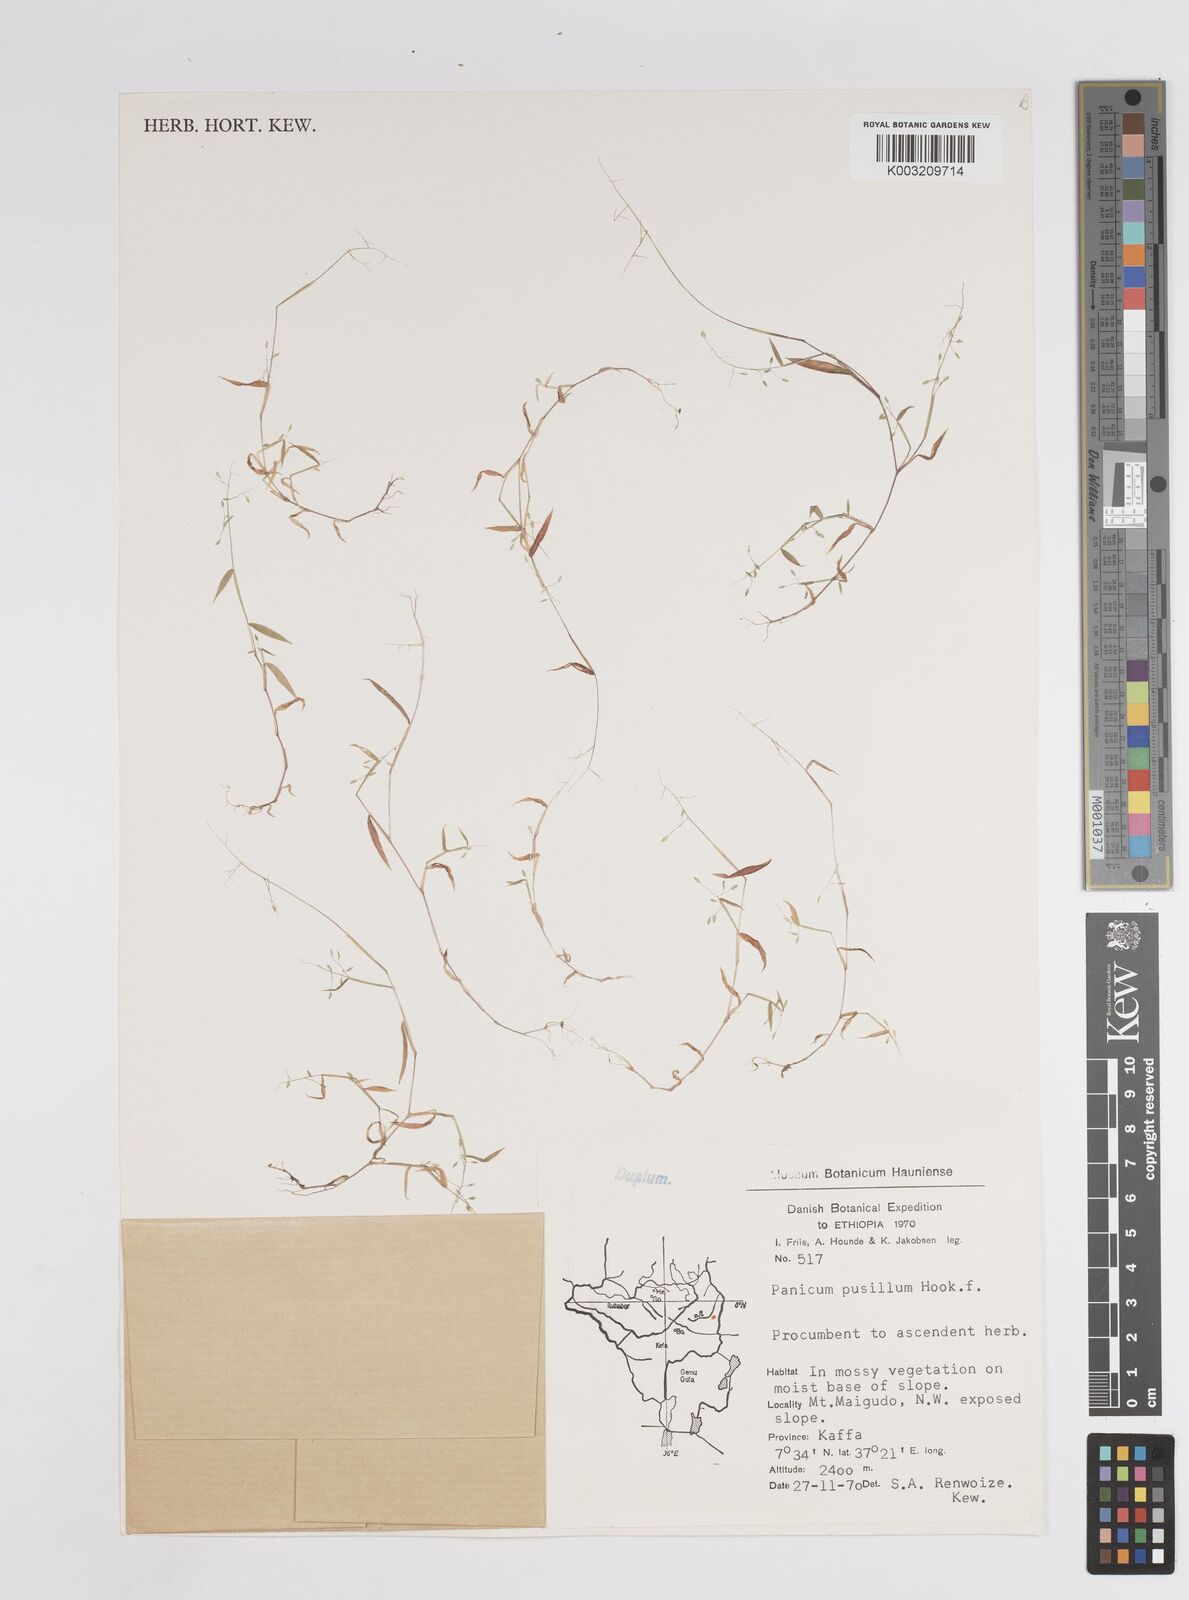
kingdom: Plantae
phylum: Tracheophyta
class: Liliopsida
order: Poales
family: Poaceae
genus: Panicum
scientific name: Panicum pusillum
